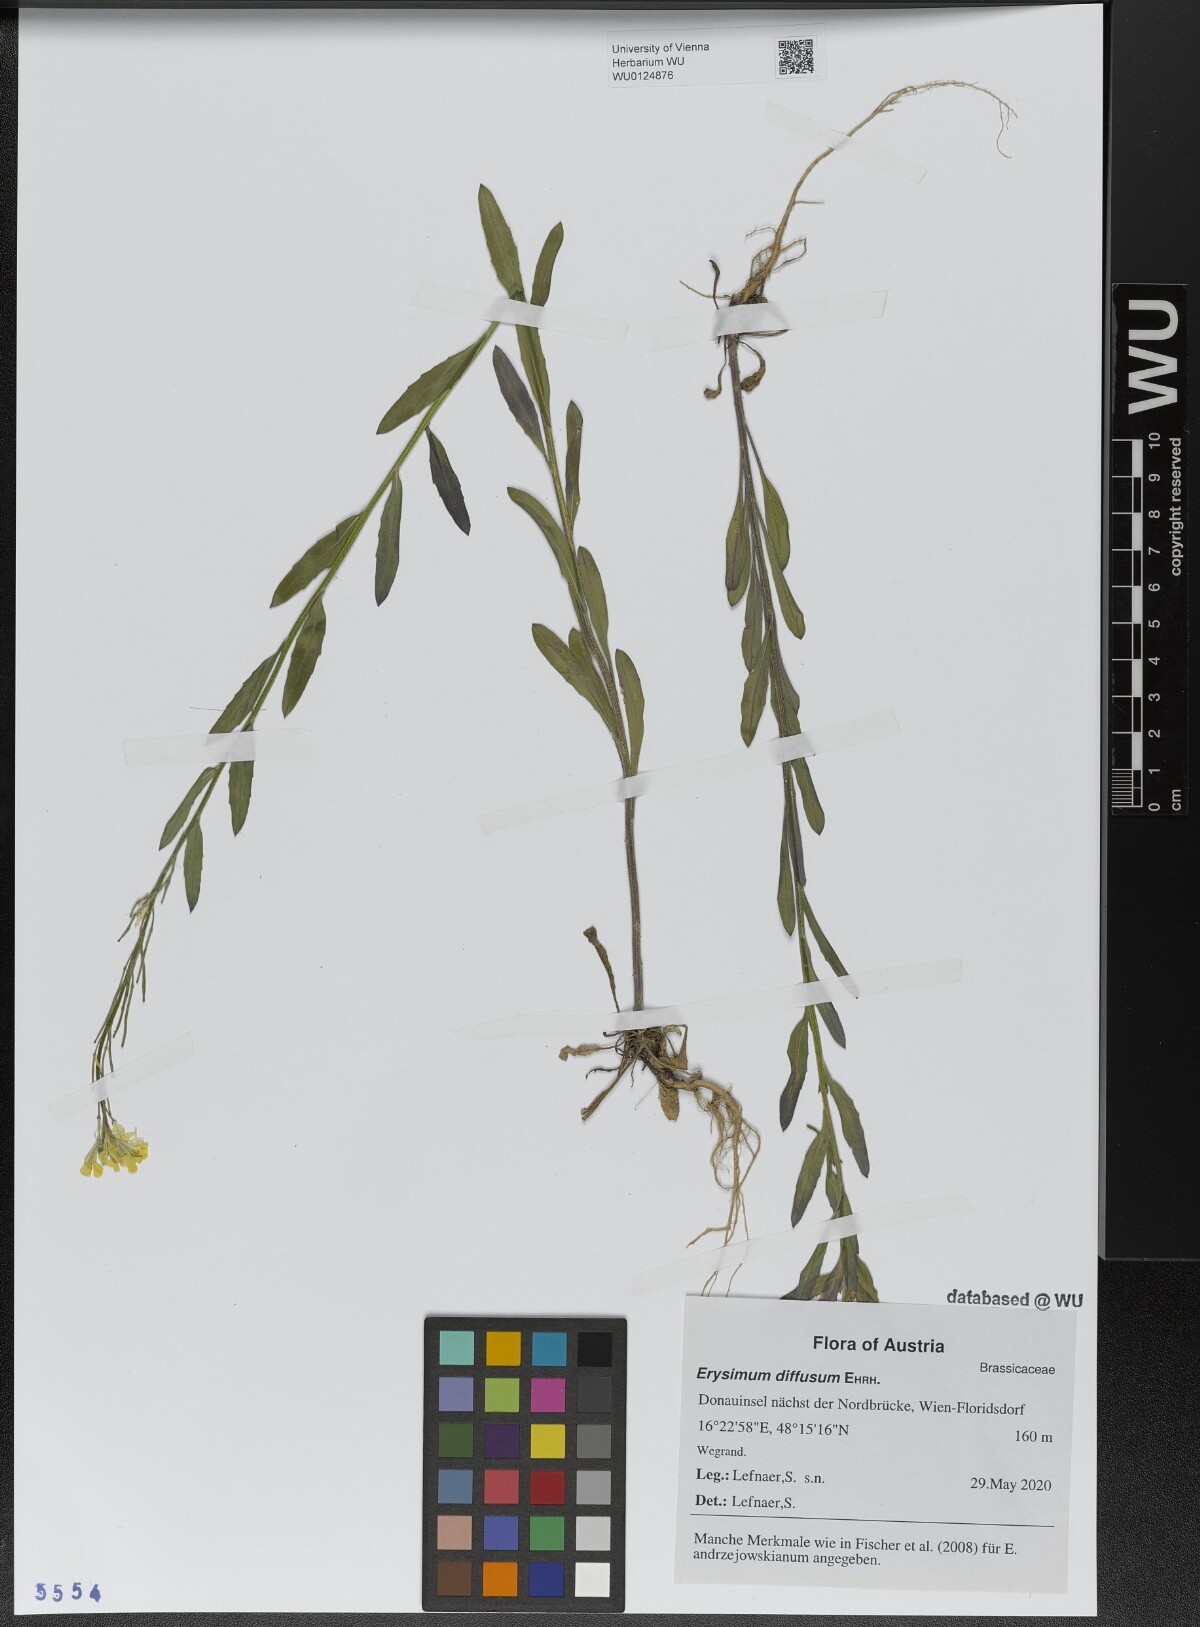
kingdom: Plantae
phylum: Tracheophyta
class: Magnoliopsida
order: Brassicales
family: Brassicaceae
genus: Erysimum
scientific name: Erysimum diffusum
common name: Diffuse wallflower
